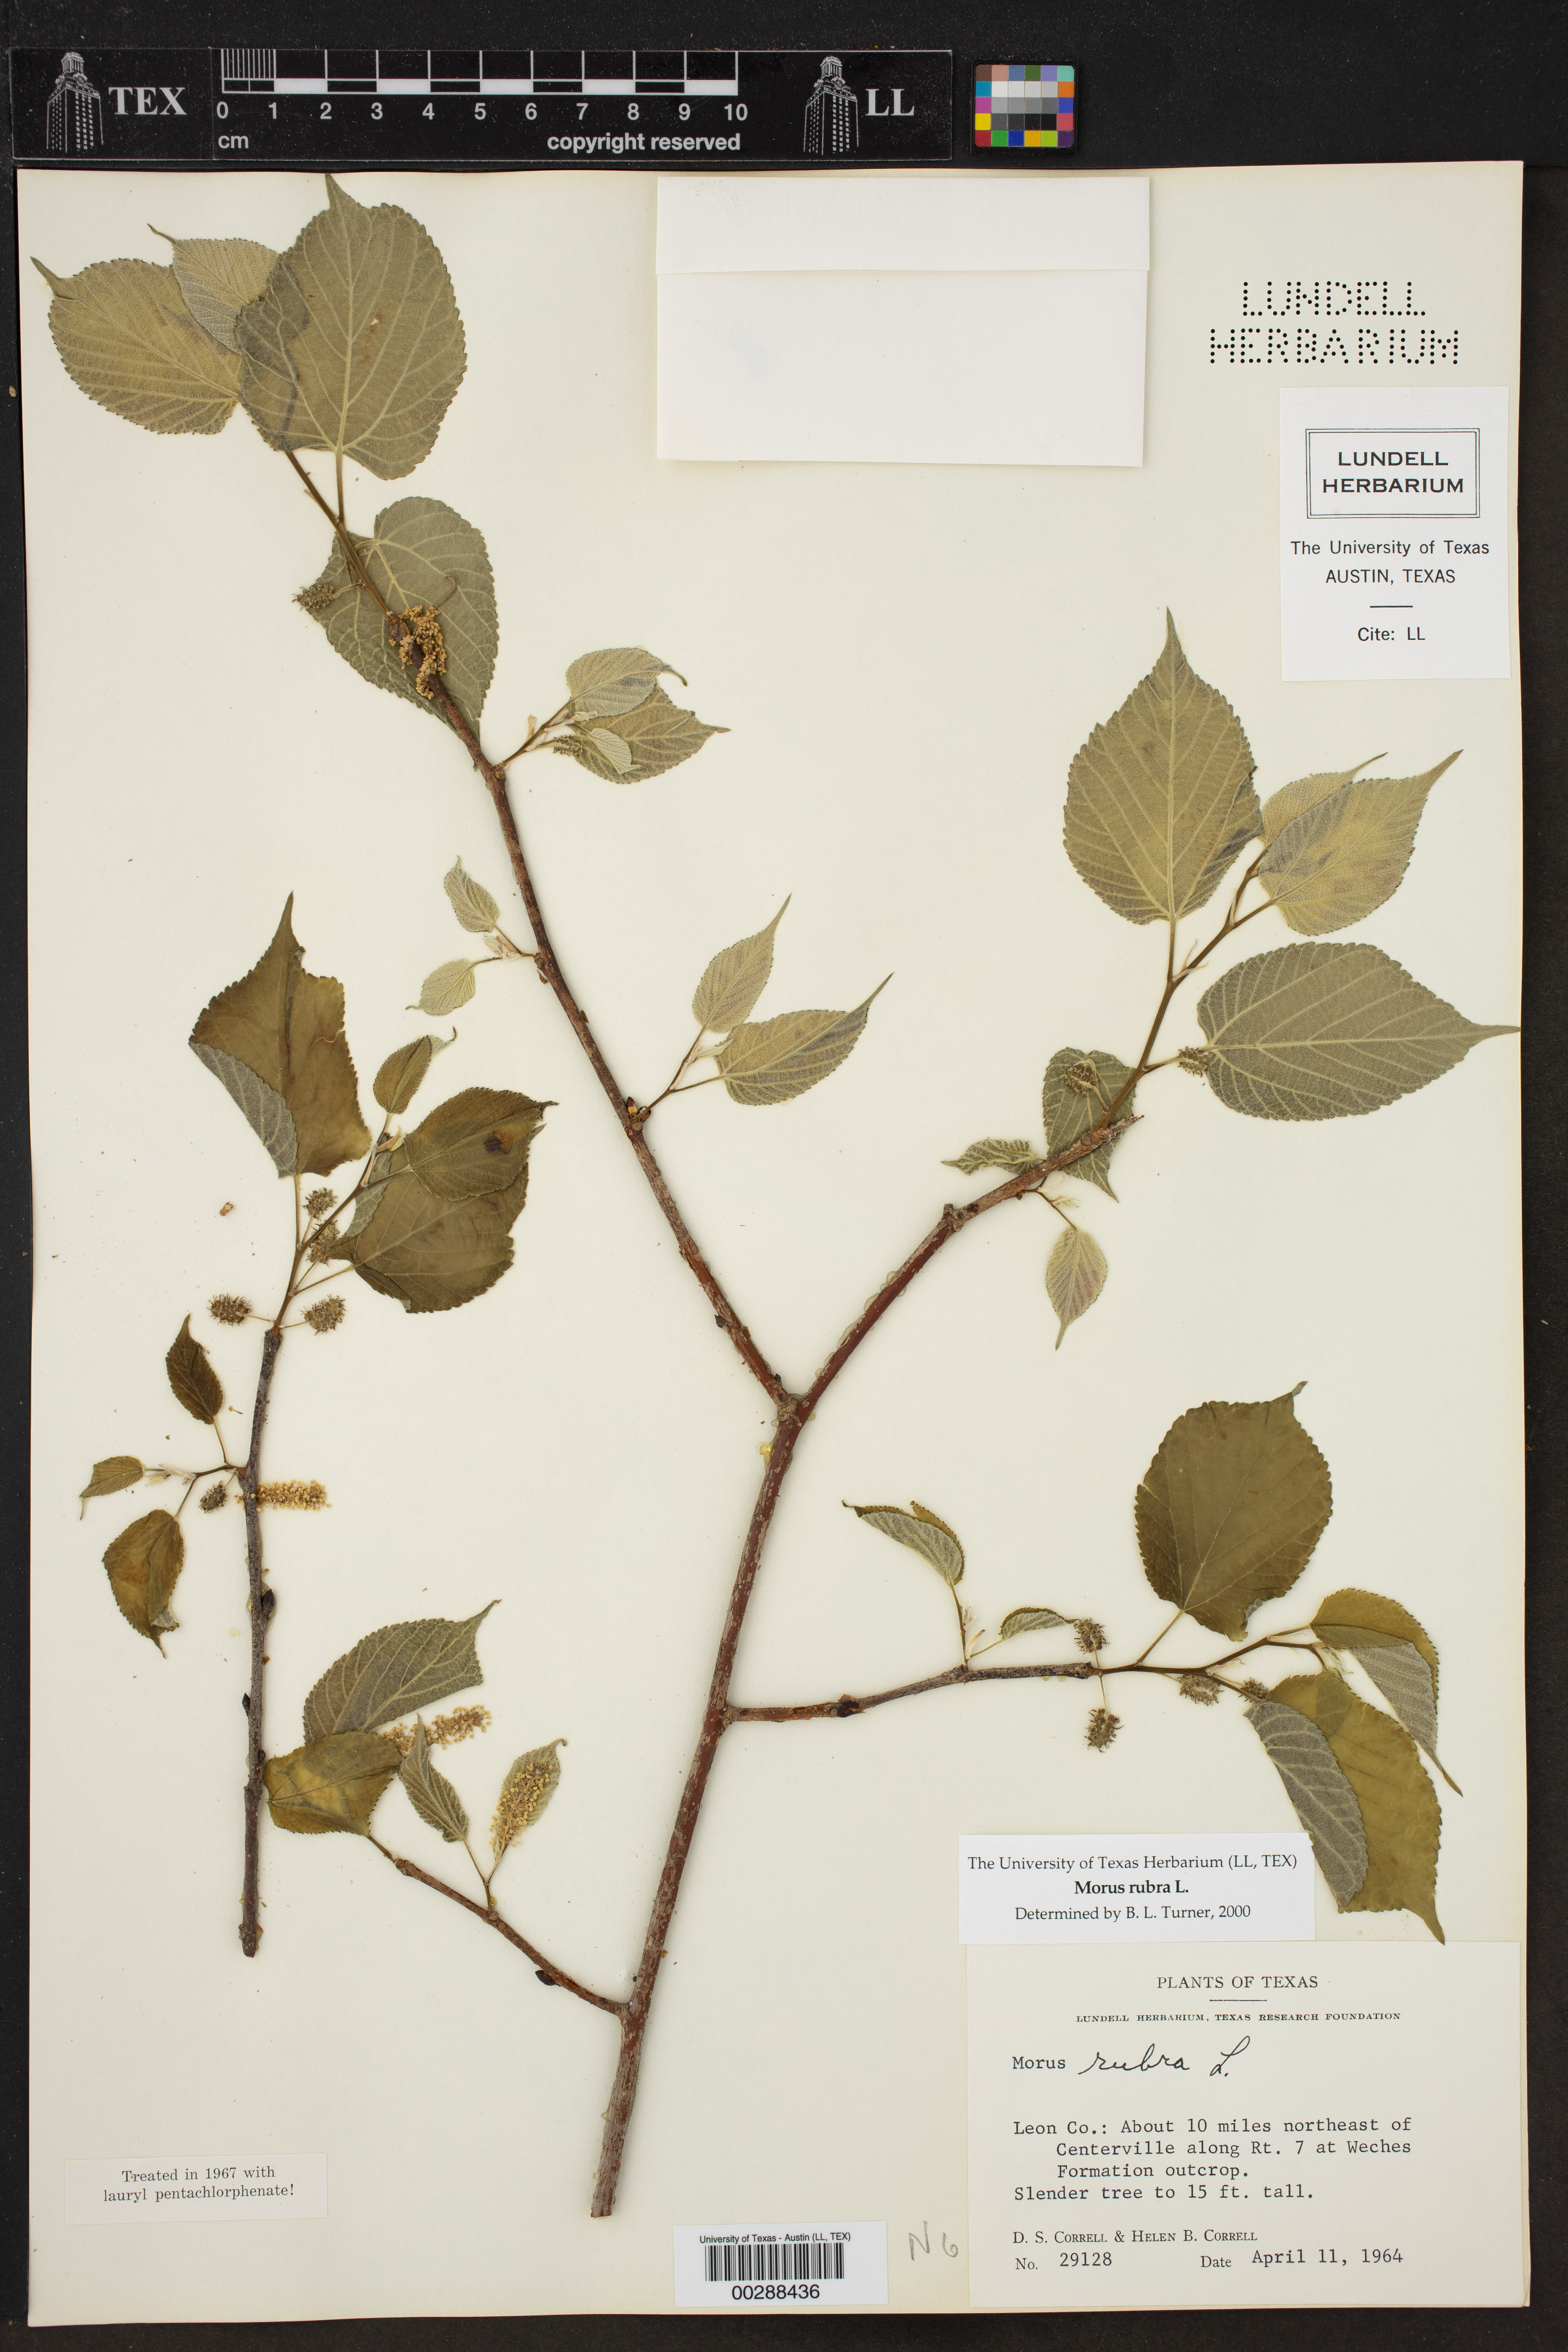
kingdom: Plantae
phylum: Tracheophyta
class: Magnoliopsida
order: Rosales
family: Moraceae
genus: Morus
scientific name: Morus rubra
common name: Red mulberry
